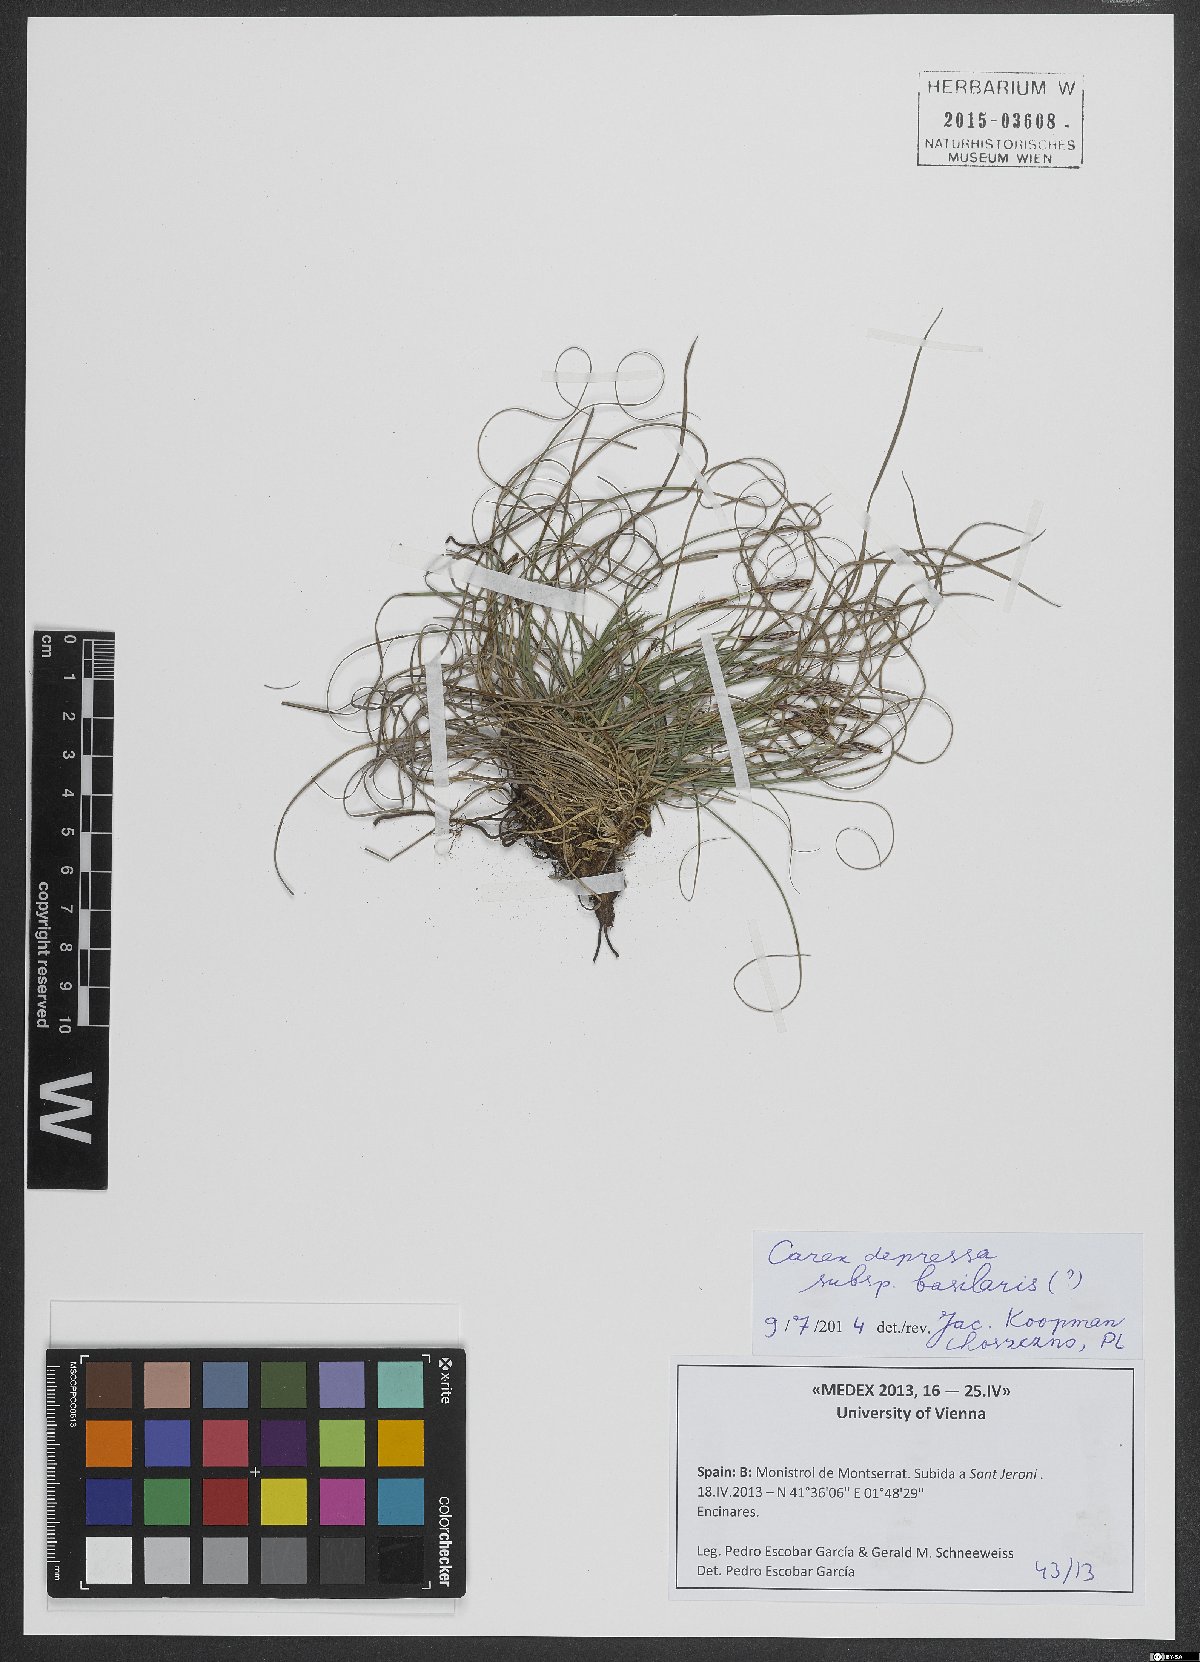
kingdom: Plantae
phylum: Tracheophyta
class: Liliopsida
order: Poales
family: Cyperaceae
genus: Carex
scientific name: Carex depressa
